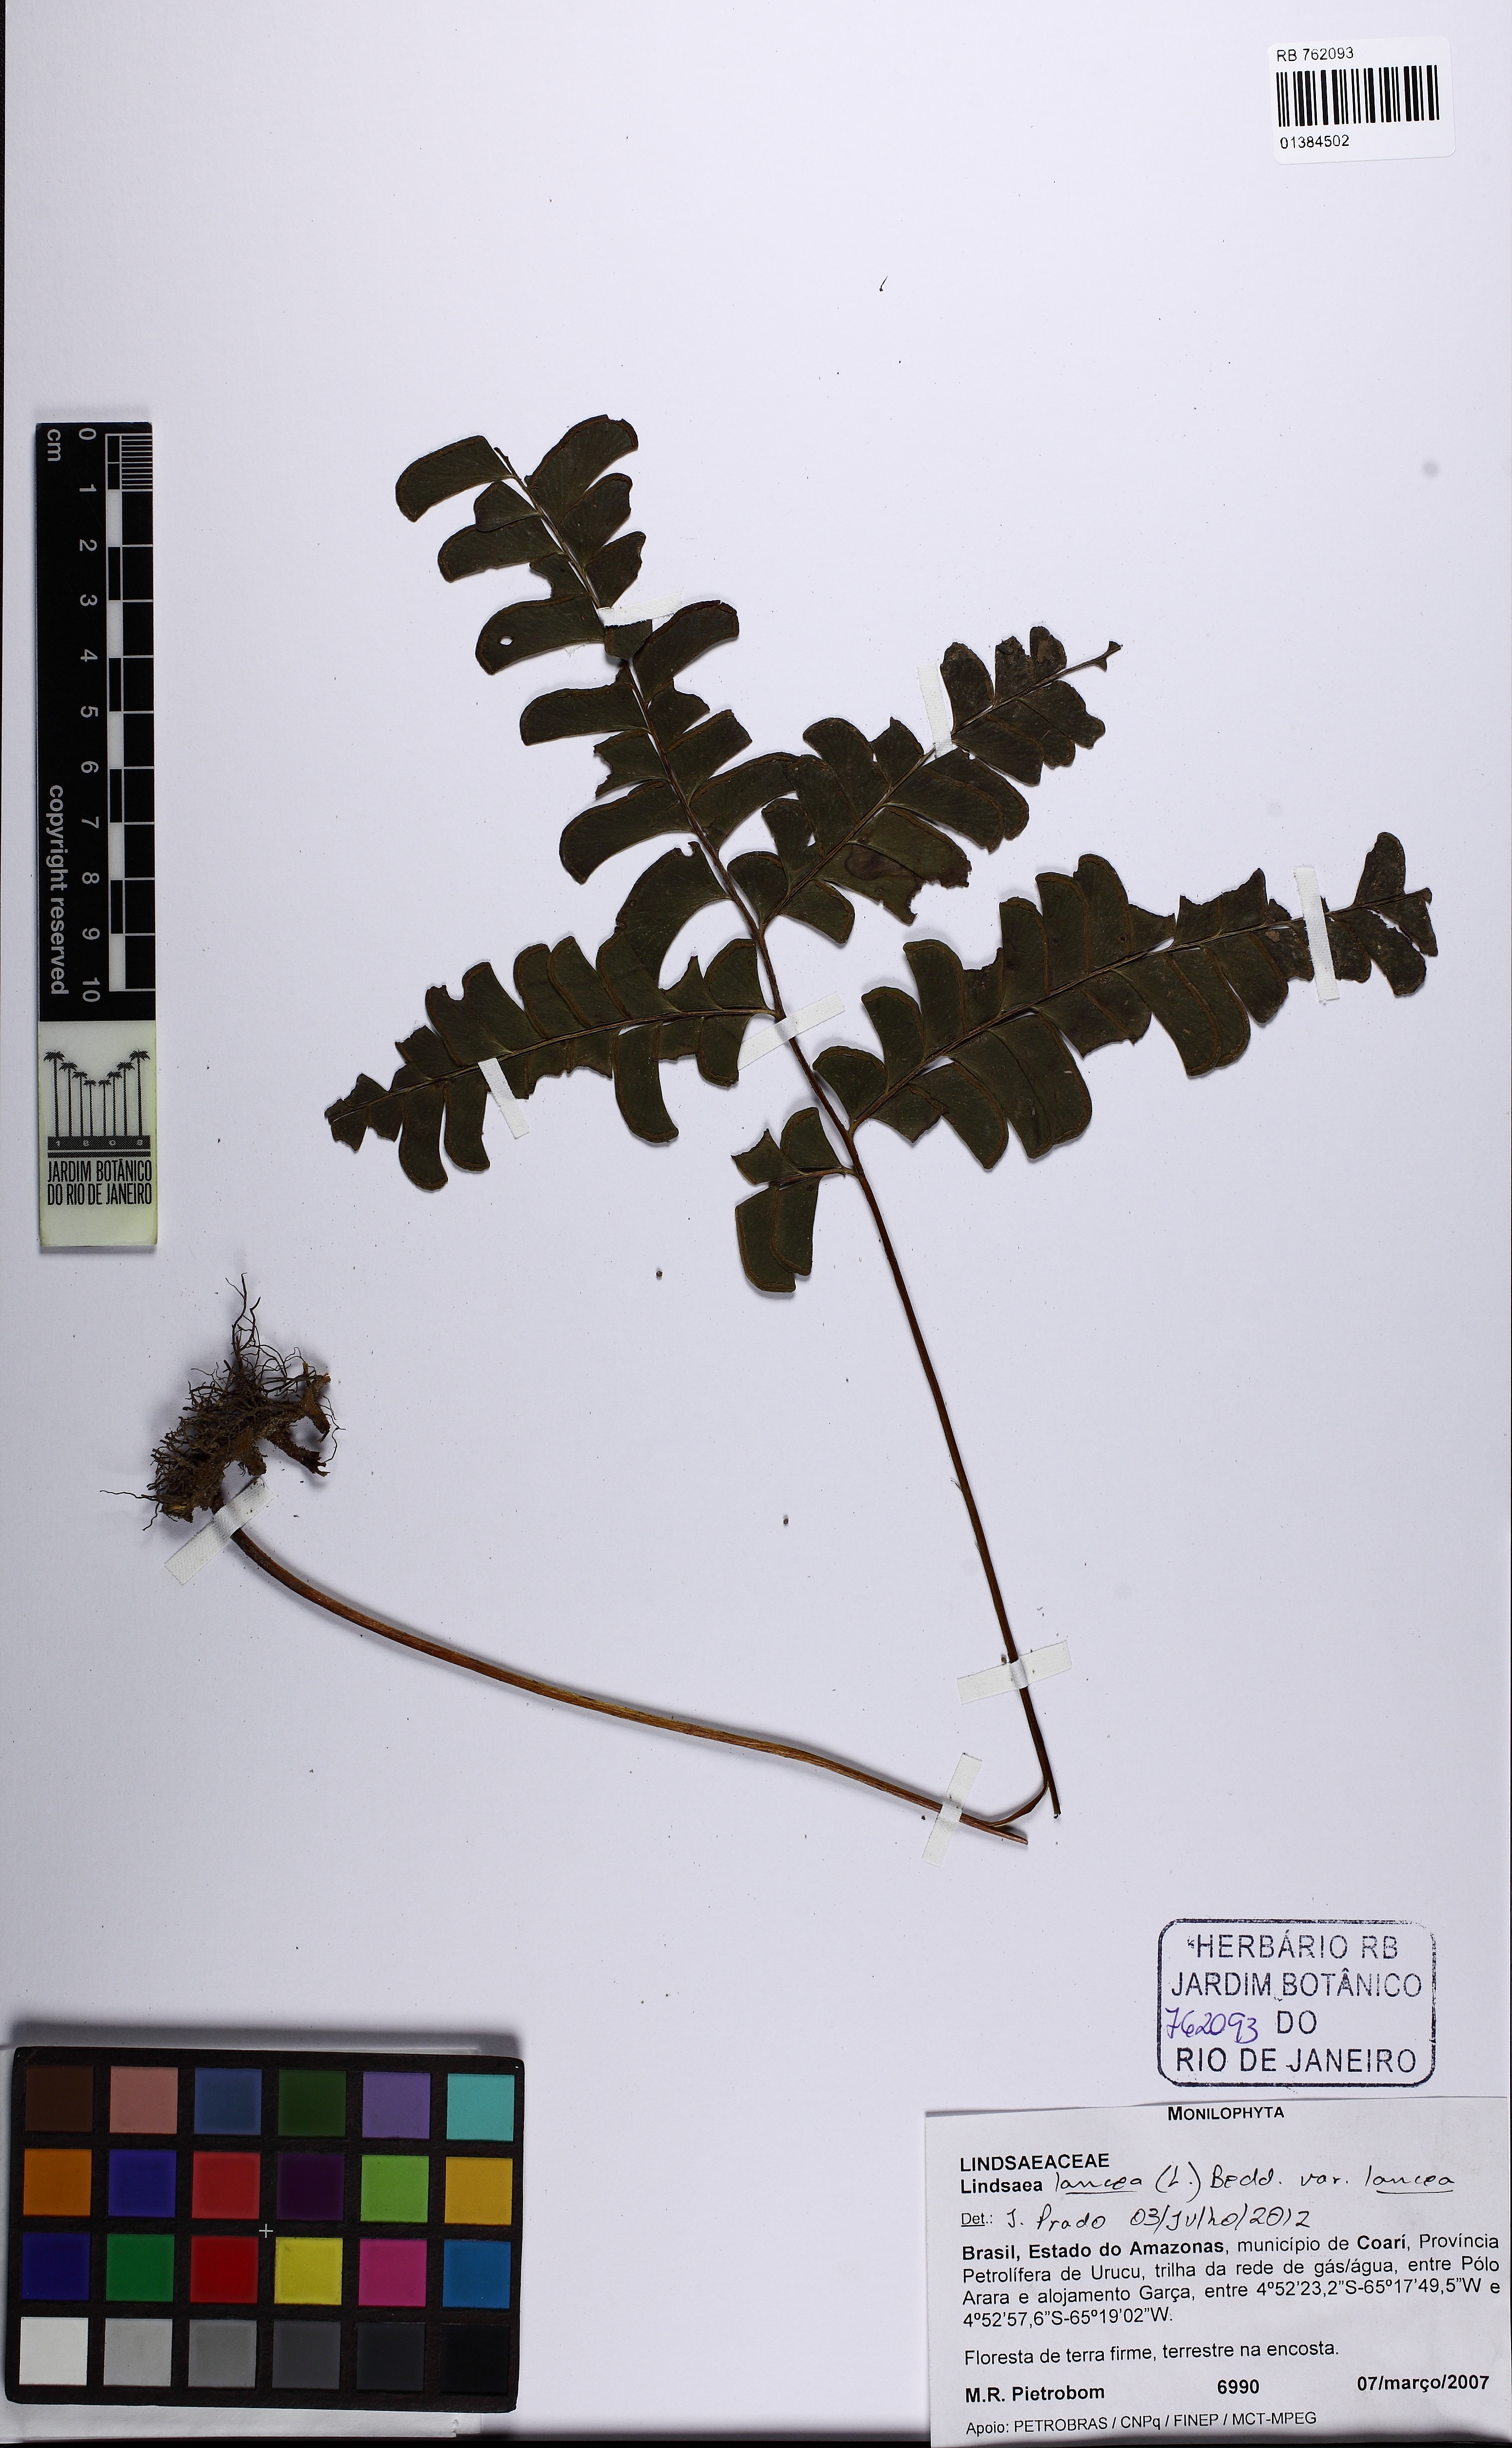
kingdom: Plantae
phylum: Tracheophyta
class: Polypodiopsida
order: Polypodiales
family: Lindsaeaceae
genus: Lindsaea
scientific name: Lindsaea lancea
